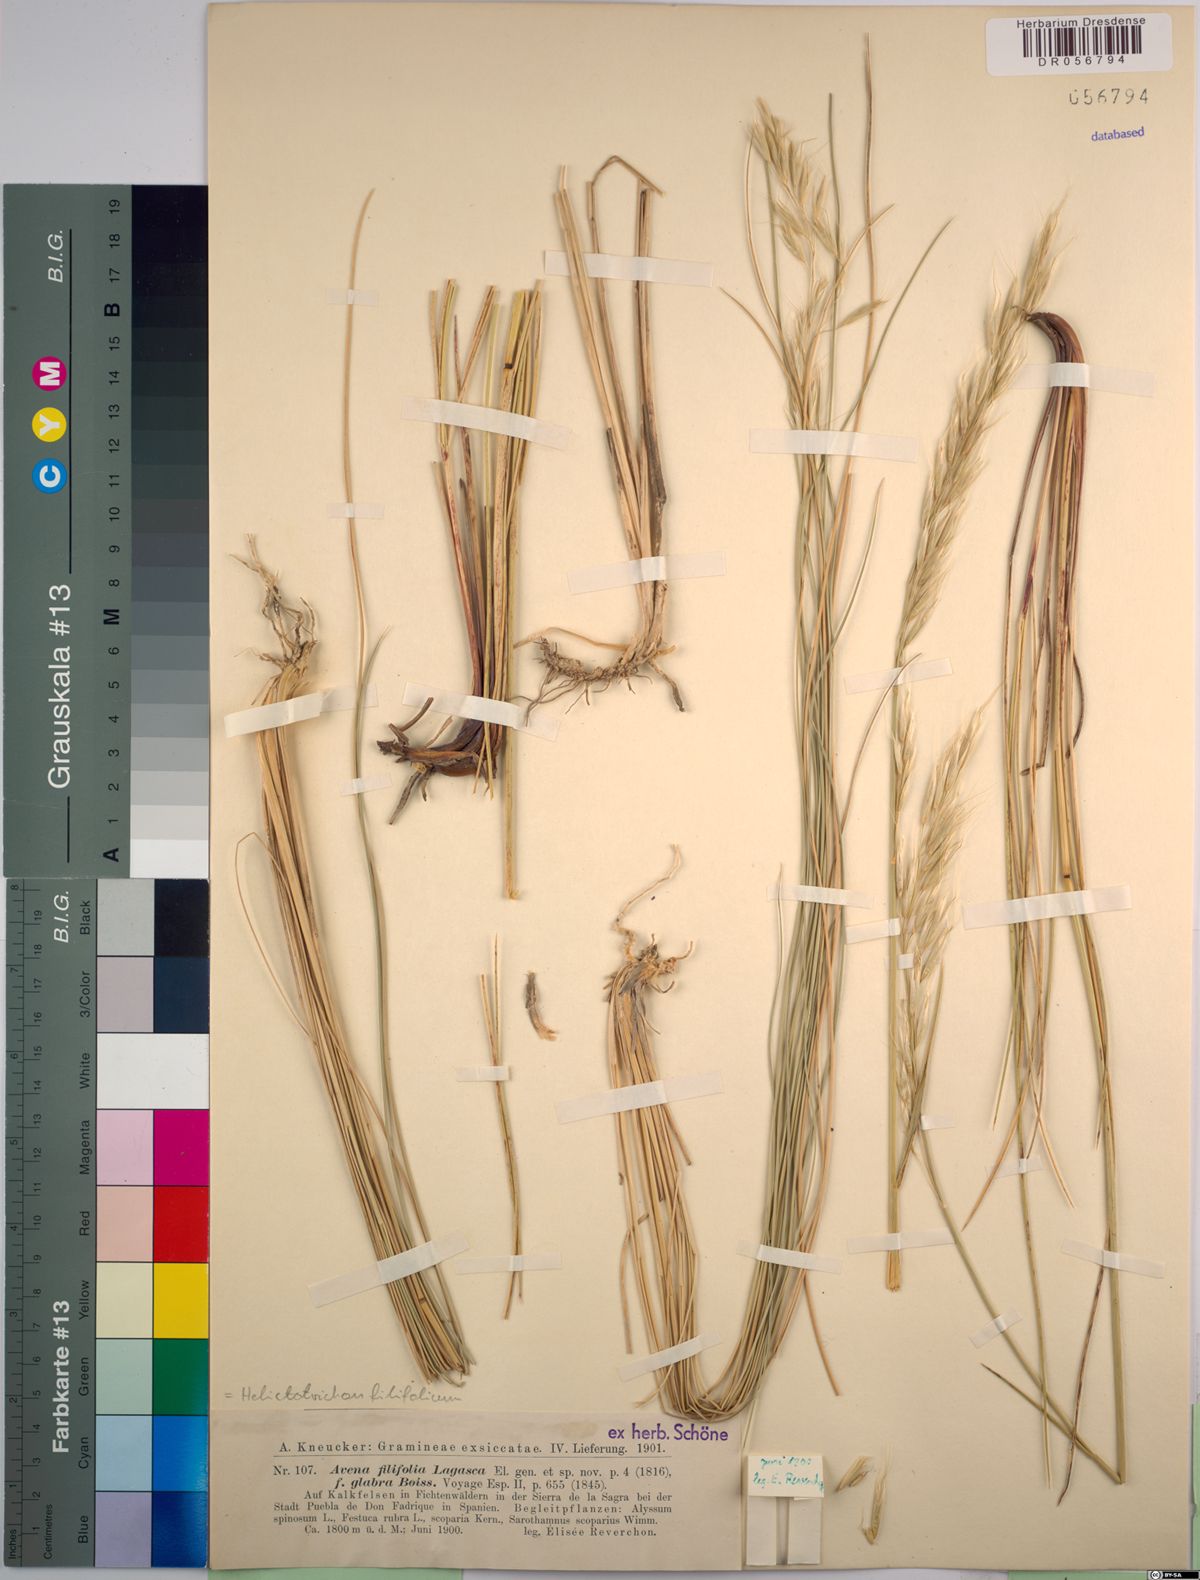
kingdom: Plantae
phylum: Tracheophyta
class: Liliopsida
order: Poales
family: Poaceae
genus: Helictotrichon
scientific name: Helictotrichon filifolium
